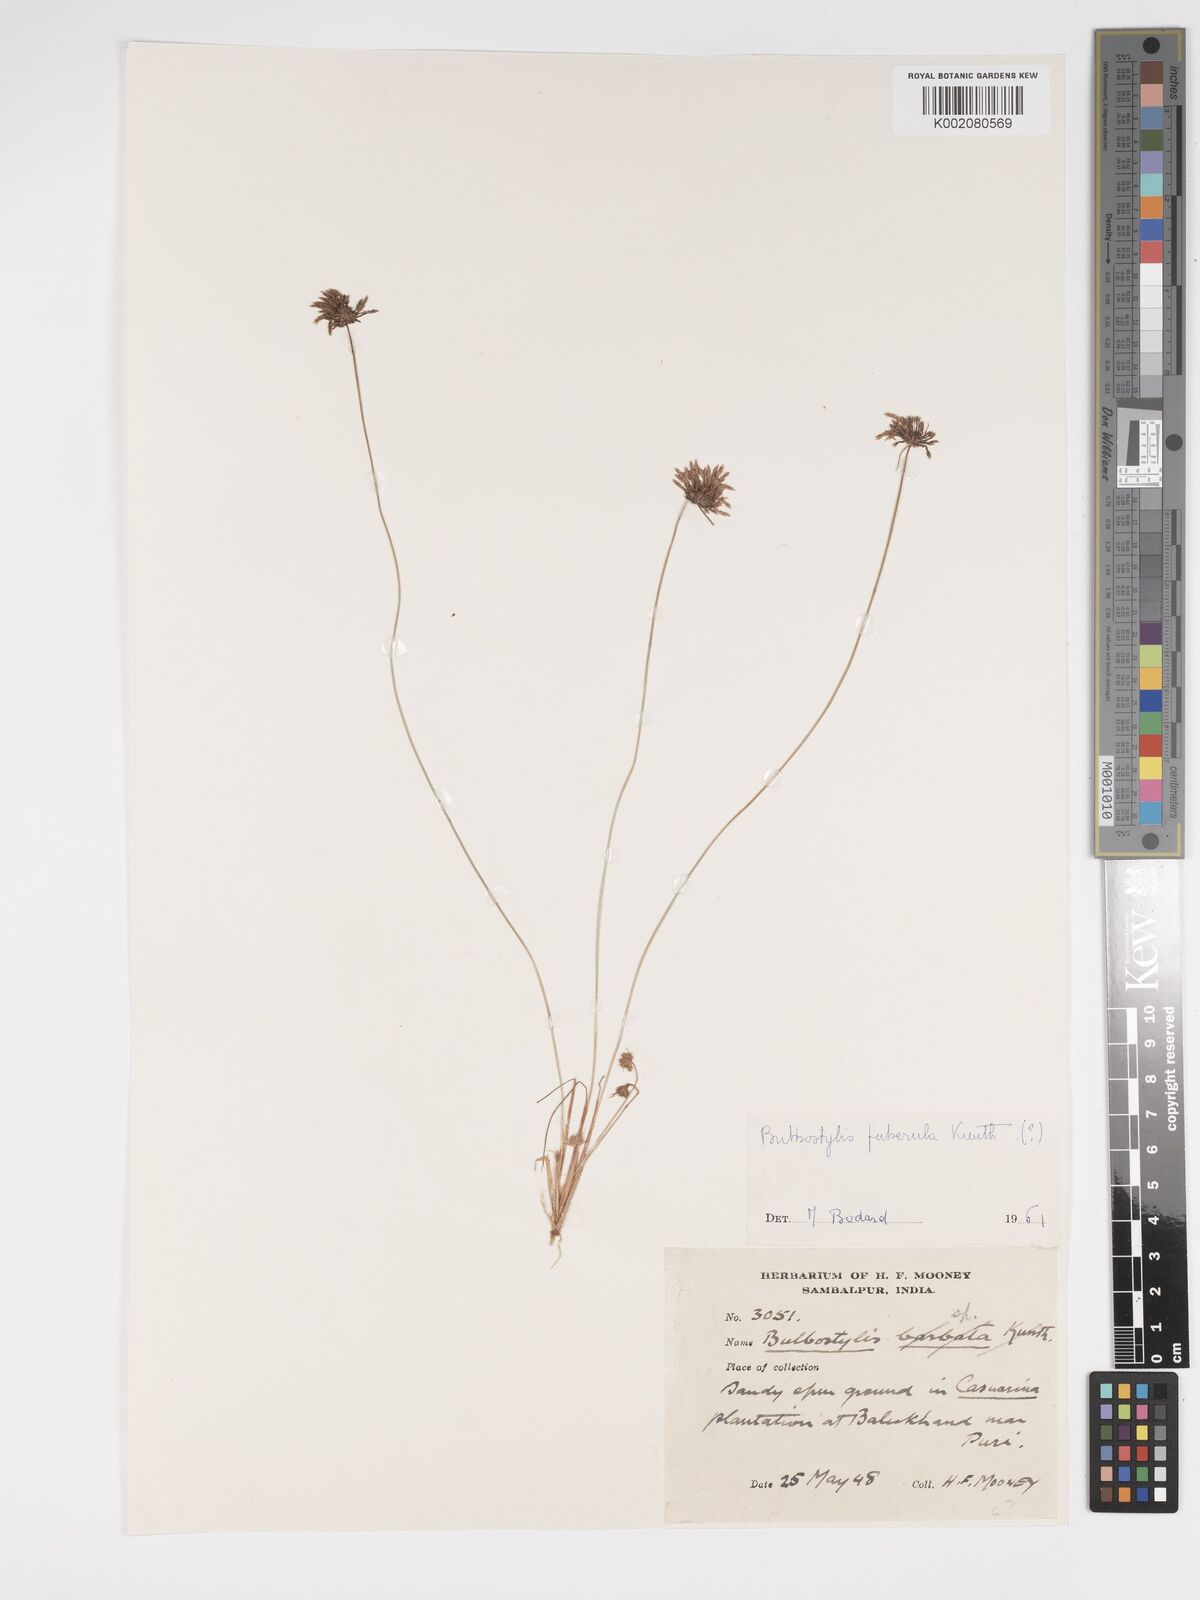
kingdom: Plantae
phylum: Tracheophyta
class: Liliopsida
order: Poales
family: Cyperaceae
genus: Bulbostylis
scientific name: Bulbostylis thouarsii
